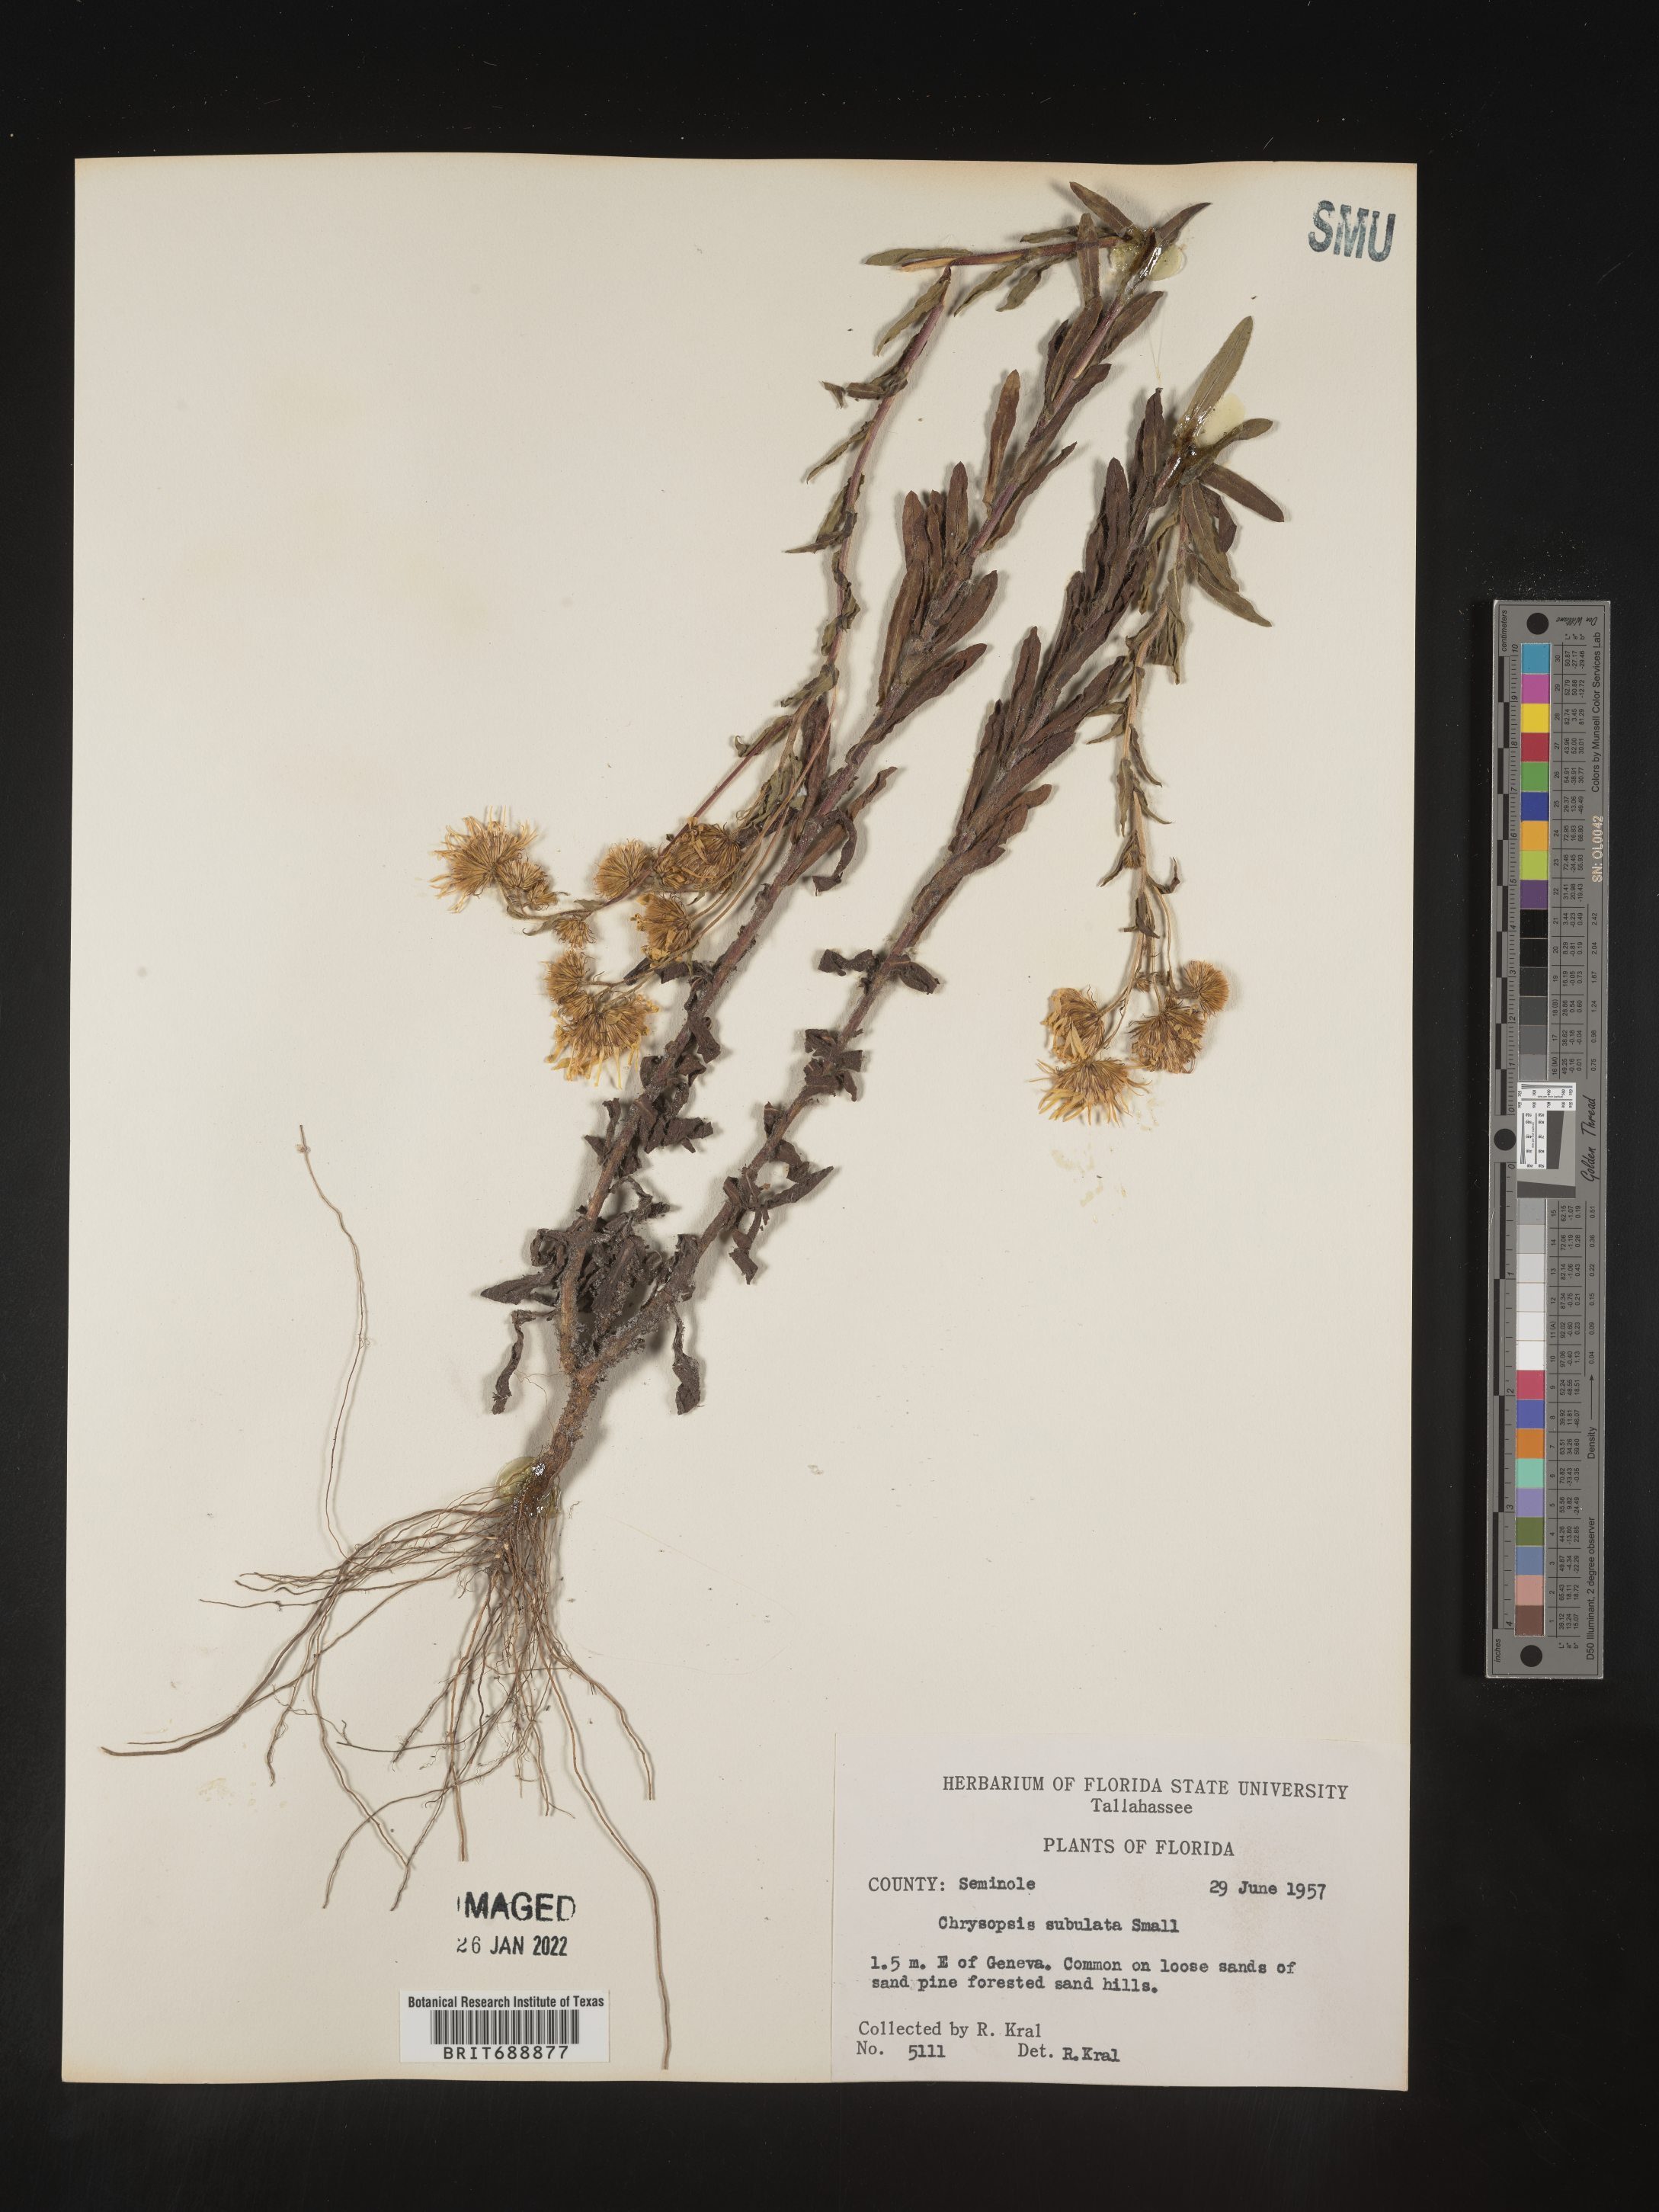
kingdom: Plantae
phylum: Tracheophyta
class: Magnoliopsida
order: Asterales
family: Asteraceae
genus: Chrysopsis
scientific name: Chrysopsis subulata
